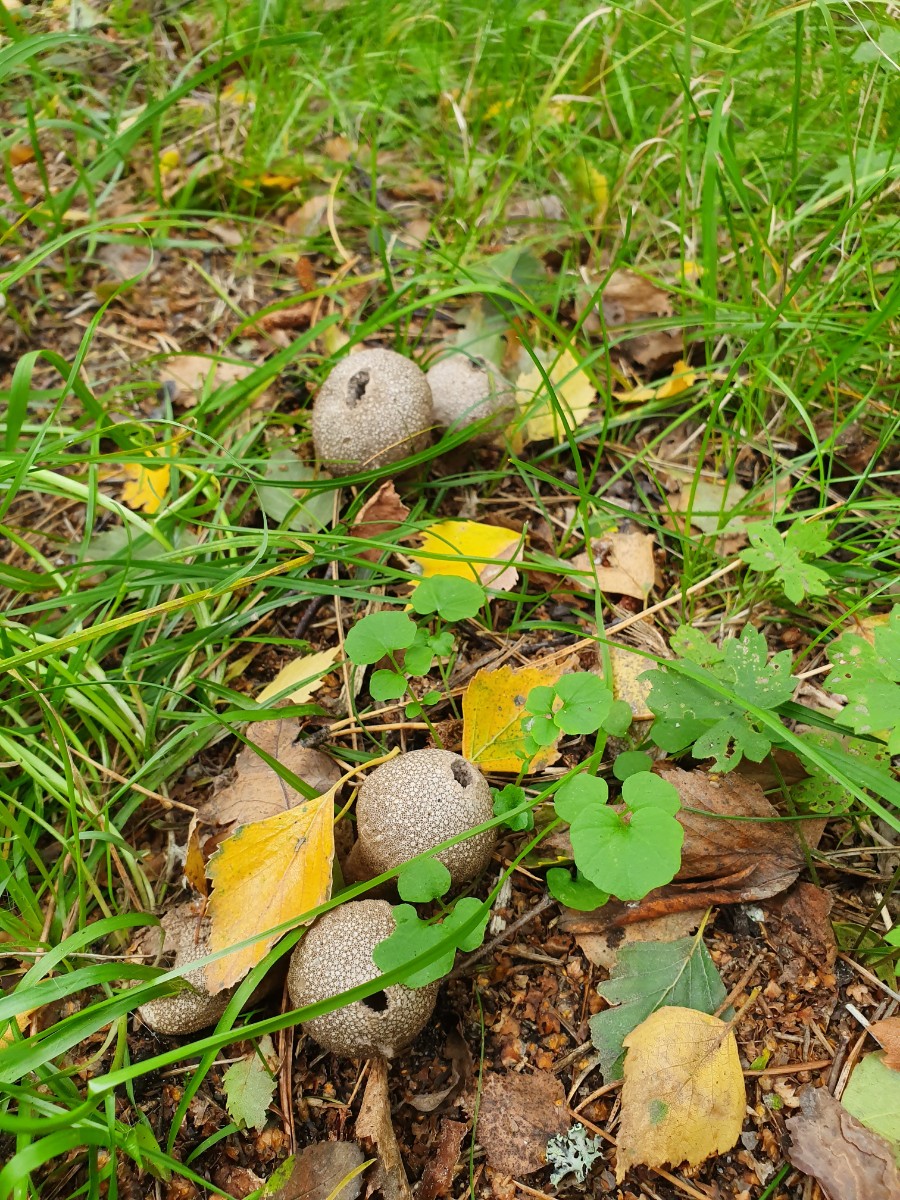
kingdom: Fungi
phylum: Basidiomycota
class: Agaricomycetes
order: Agaricales
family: Agaricaceae
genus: Lycoperdon
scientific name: Lycoperdon
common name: støvbold
